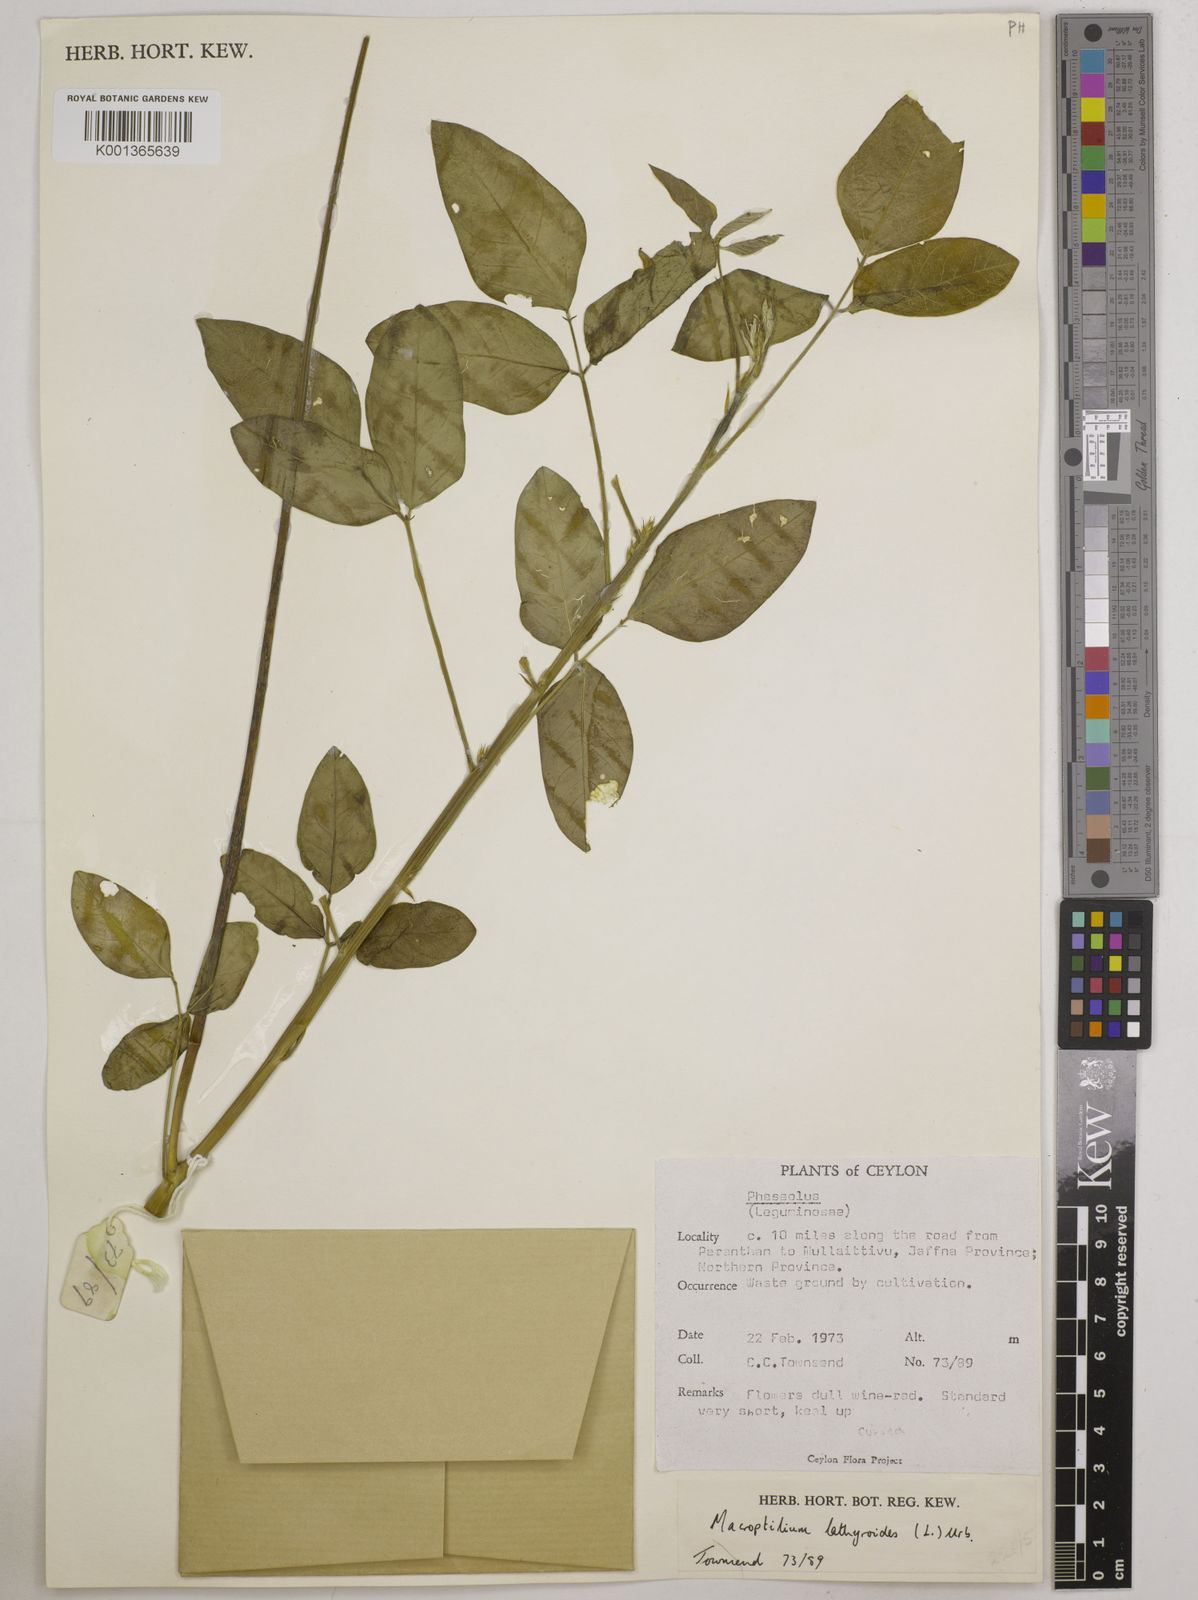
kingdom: Plantae
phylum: Tracheophyta
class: Magnoliopsida
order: Fabales
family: Fabaceae
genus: Macroptilium
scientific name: Macroptilium lathyroides
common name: Wild bushbean
